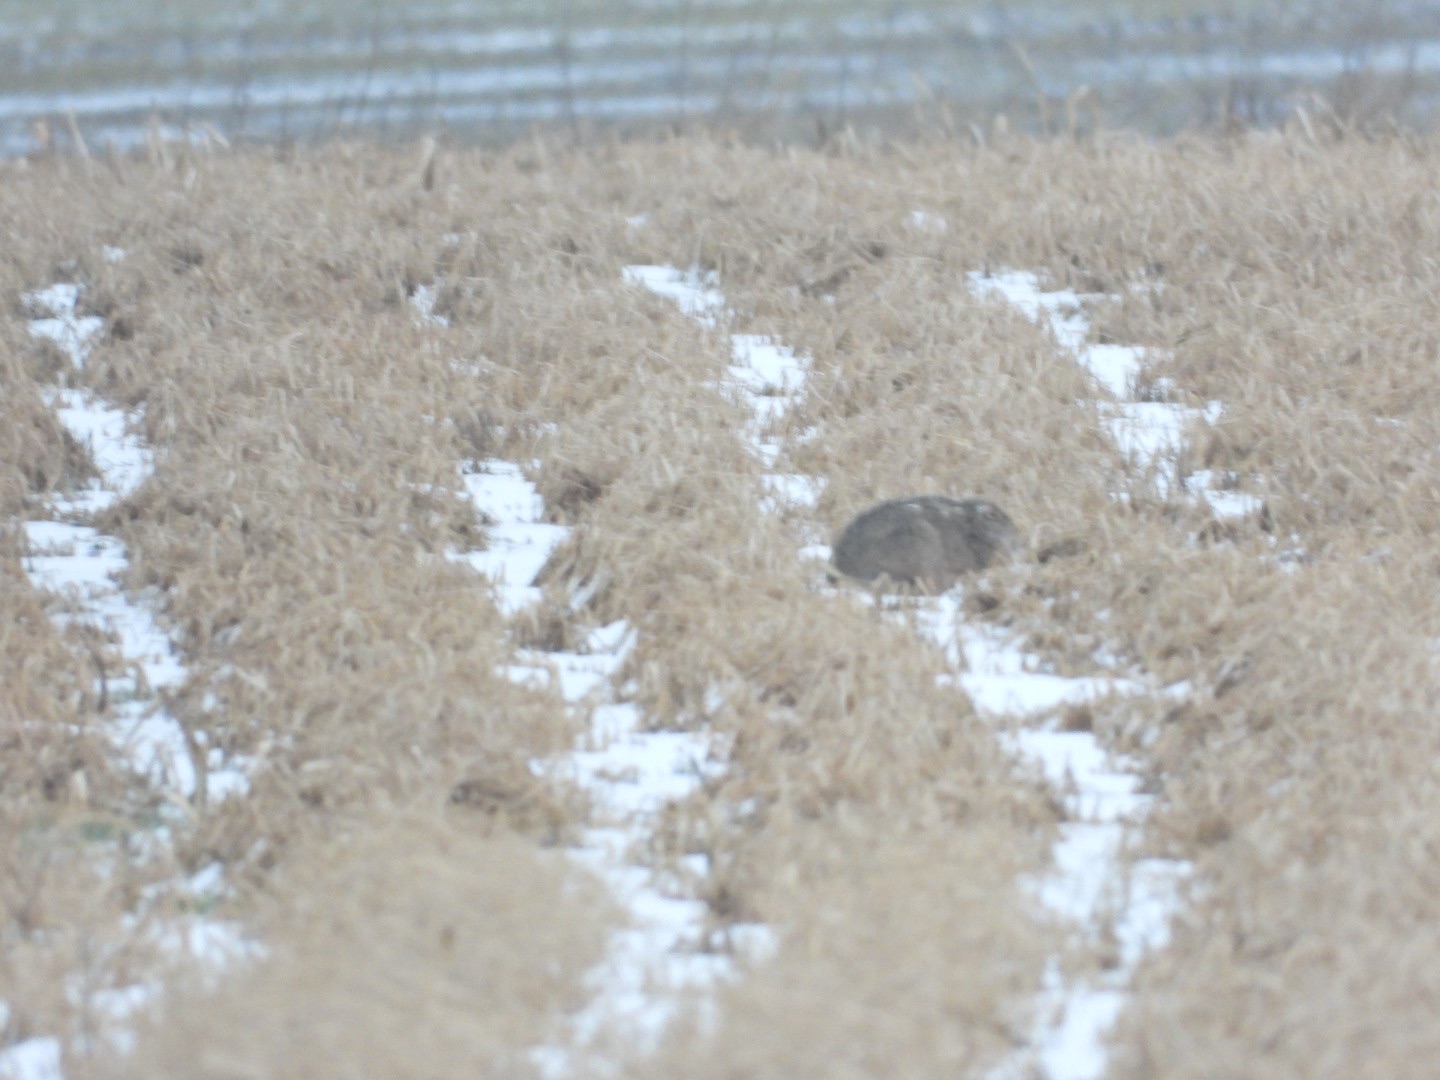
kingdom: Animalia
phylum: Chordata
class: Mammalia
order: Lagomorpha
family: Leporidae
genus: Lepus
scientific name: Lepus europaeus
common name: Hare
